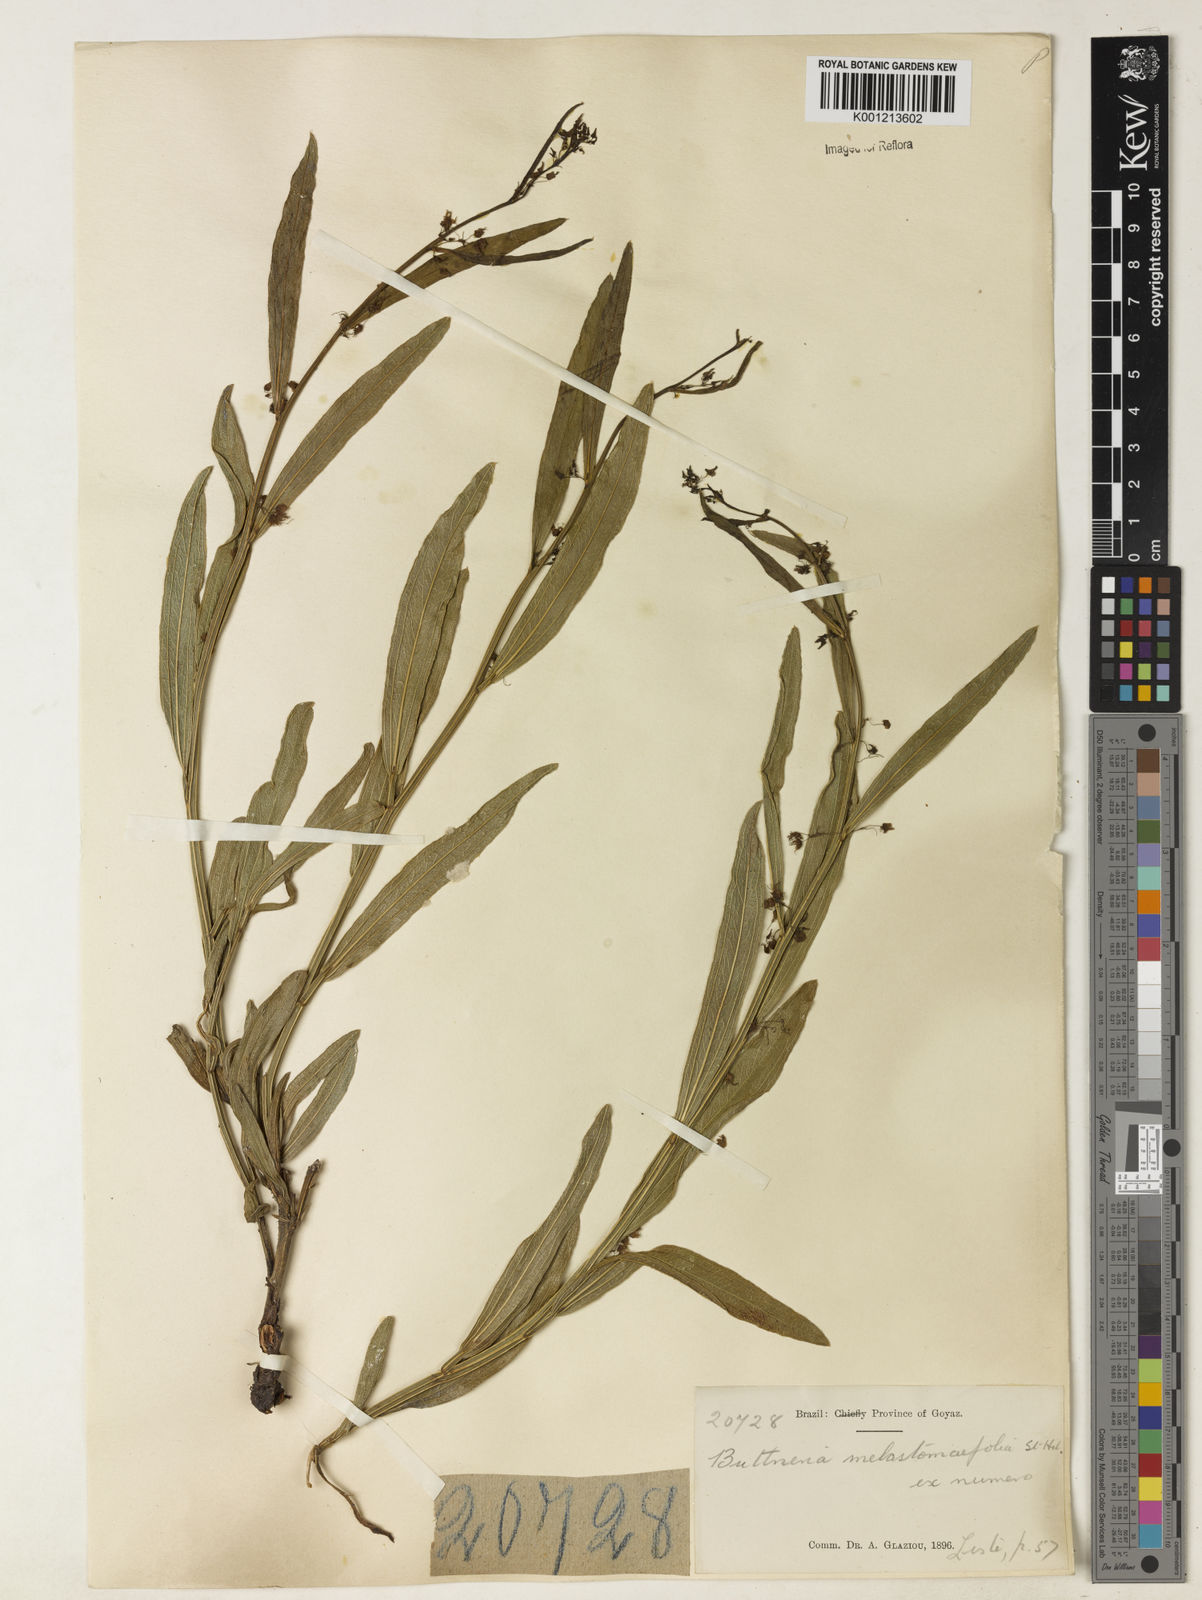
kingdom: Plantae
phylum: Tracheophyta
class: Magnoliopsida
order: Malvales
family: Malvaceae
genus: Byttneria
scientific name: Byttneria oblongata
